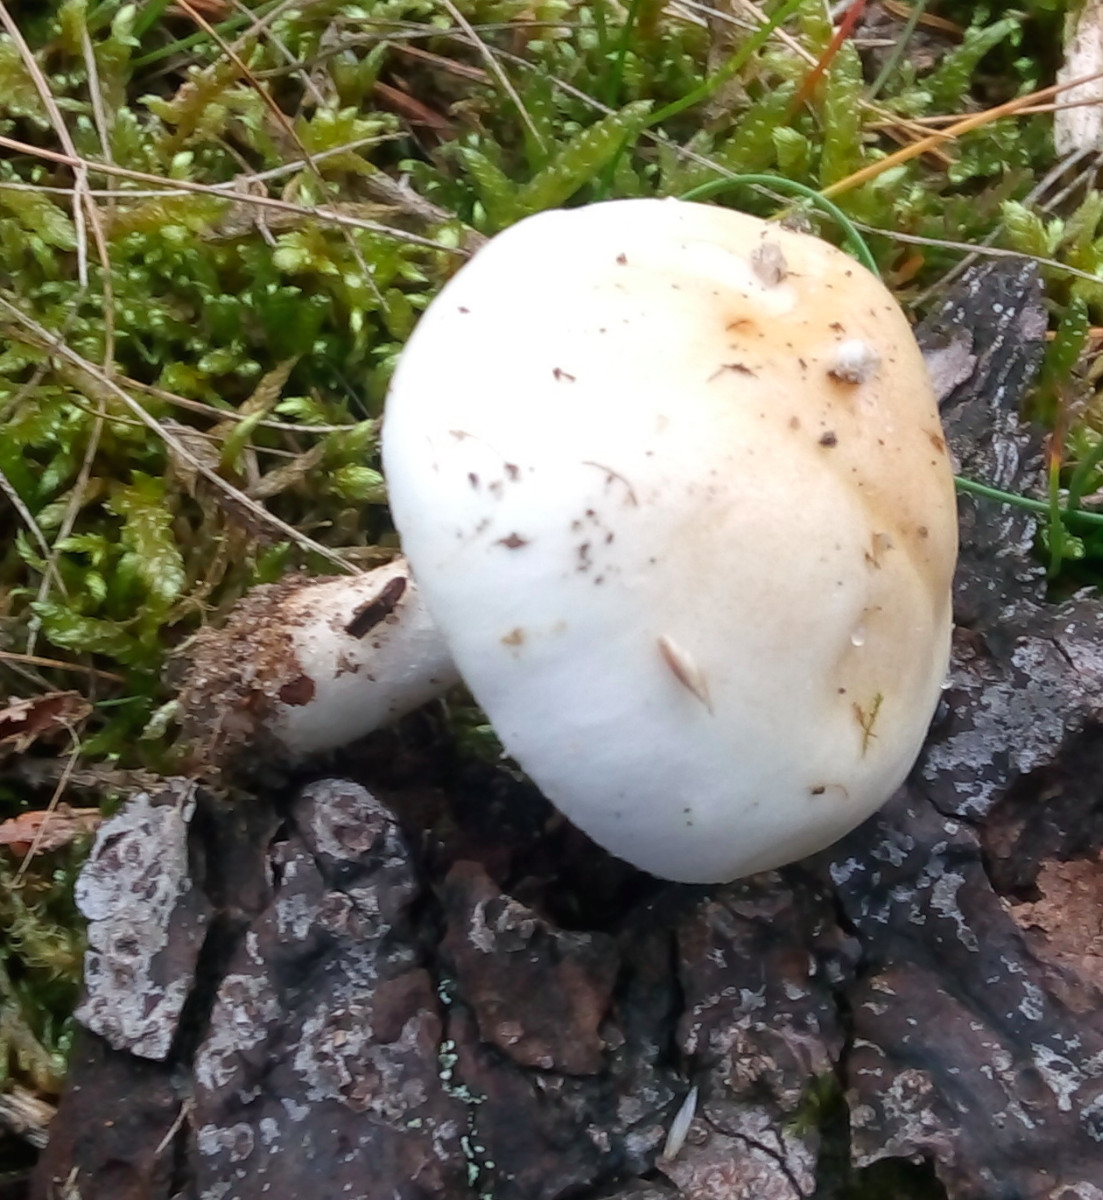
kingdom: Fungi
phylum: Basidiomycota
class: Agaricomycetes
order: Agaricales
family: Hymenogastraceae
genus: Hebeloma
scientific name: Hebeloma
